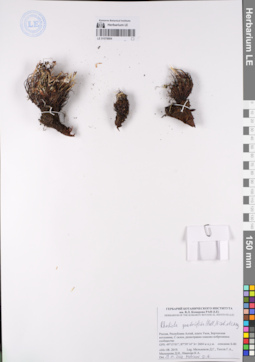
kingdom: Plantae
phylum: Tracheophyta
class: Magnoliopsida
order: Saxifragales
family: Crassulaceae
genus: Rhodiola
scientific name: Rhodiola quadrifida
